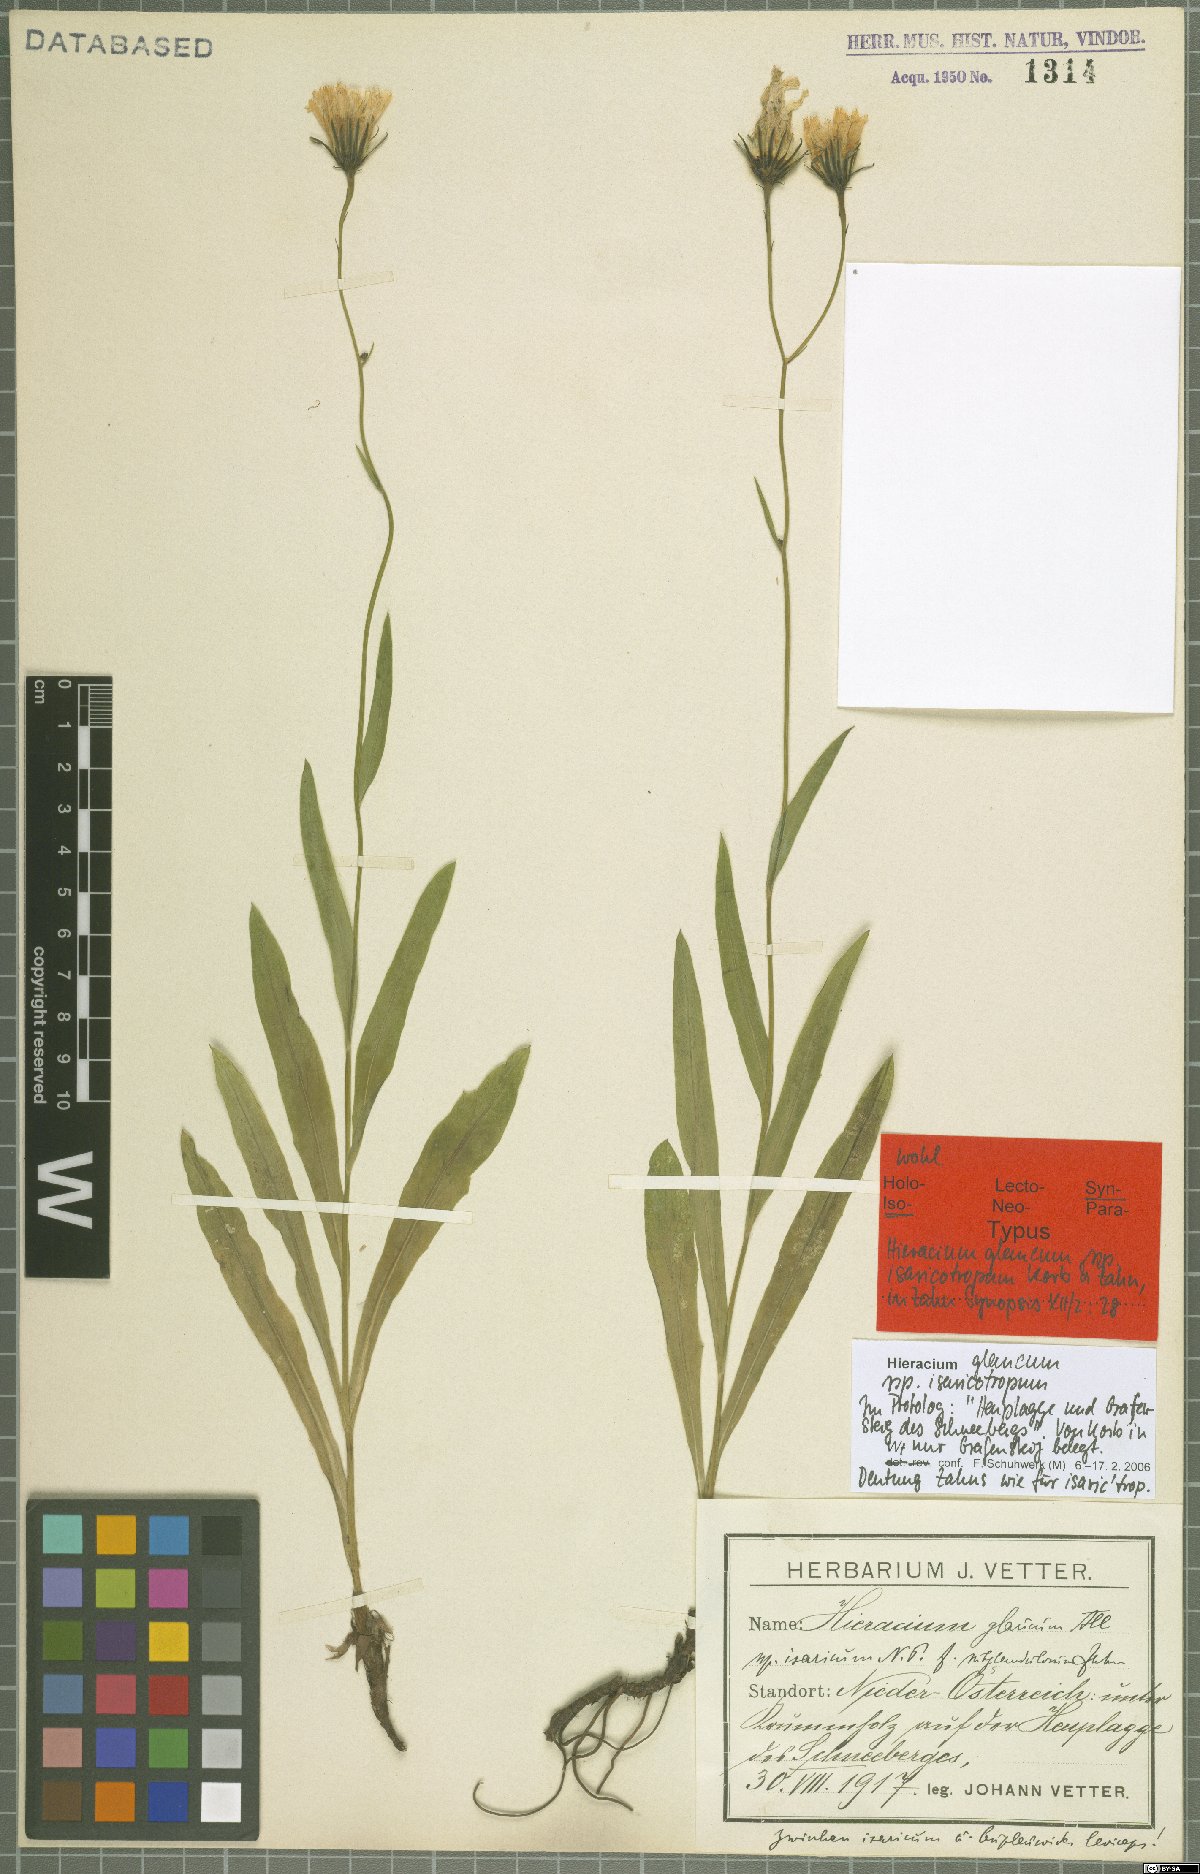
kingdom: Plantae
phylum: Tracheophyta
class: Magnoliopsida
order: Asterales
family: Asteraceae
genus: Hieracium
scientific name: Hieracium glaucum
